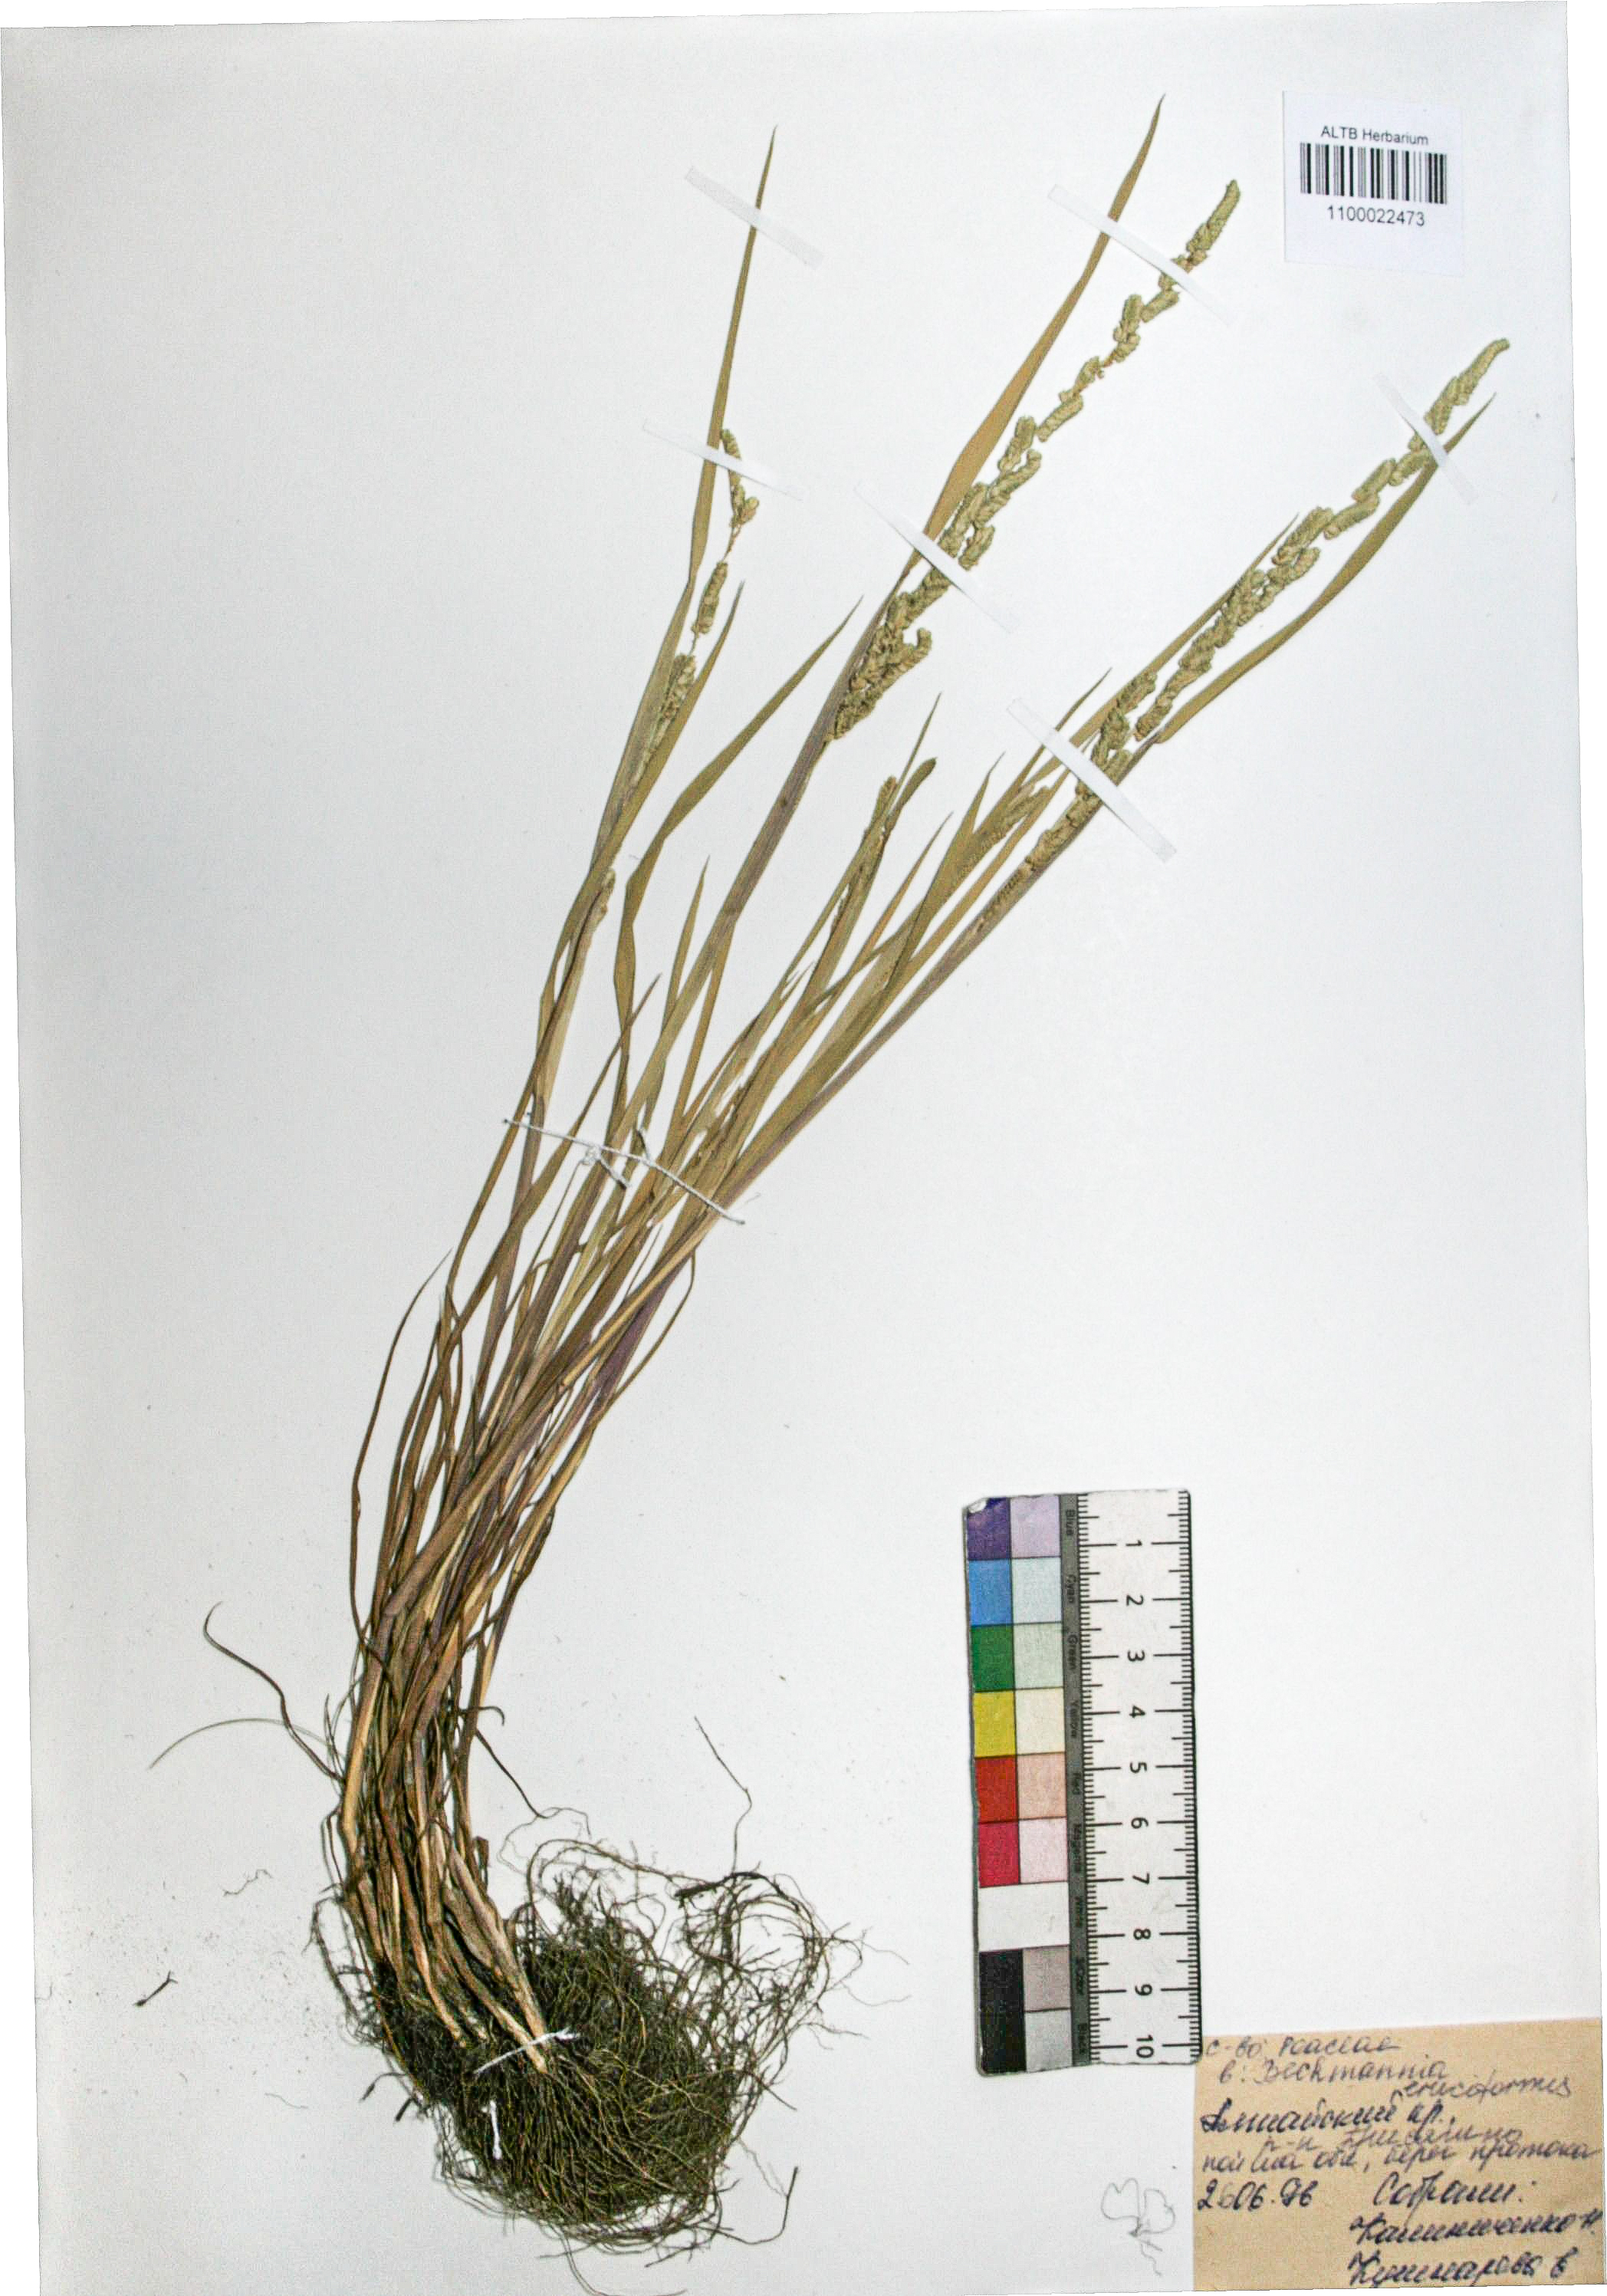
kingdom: Plantae
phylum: Tracheophyta
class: Liliopsida
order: Poales
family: Poaceae
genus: Beckmannia
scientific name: Beckmannia syzigachne
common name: American slough-grass
